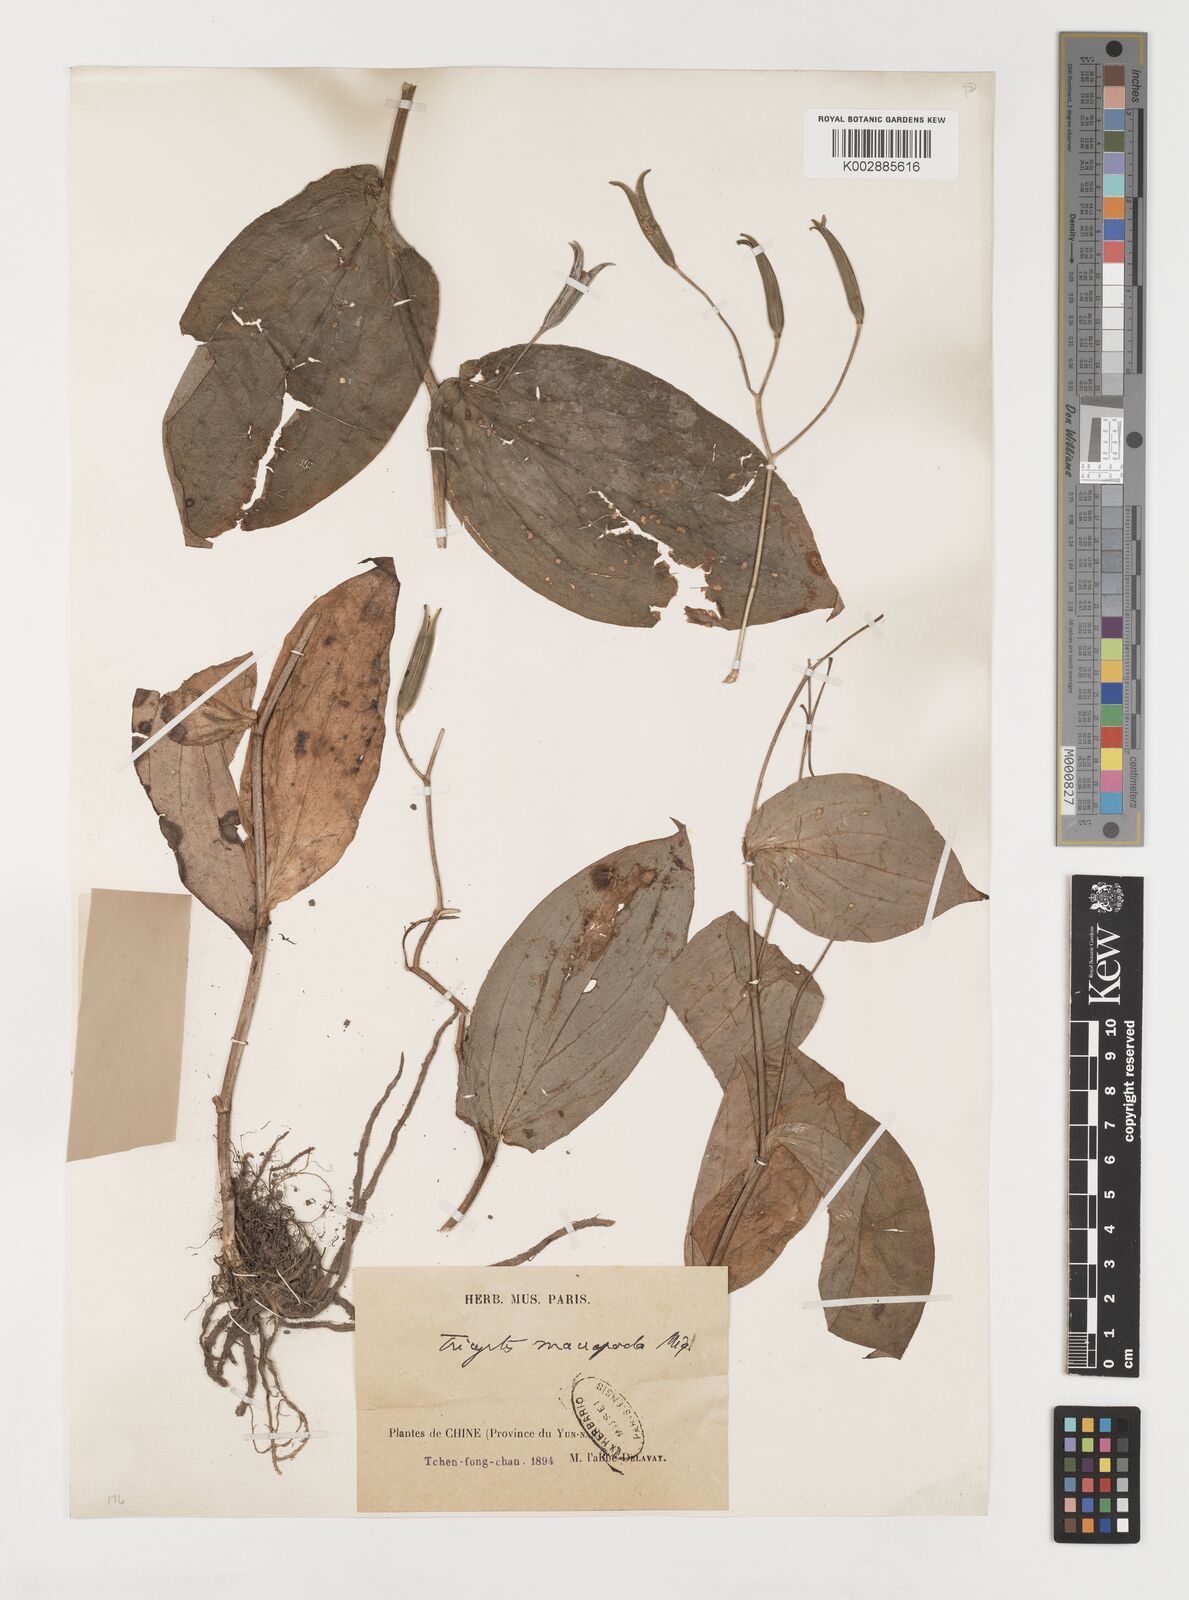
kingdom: Plantae
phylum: Tracheophyta
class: Liliopsida
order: Liliales
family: Liliaceae
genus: Tricyrtis
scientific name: Tricyrtis latifolia
